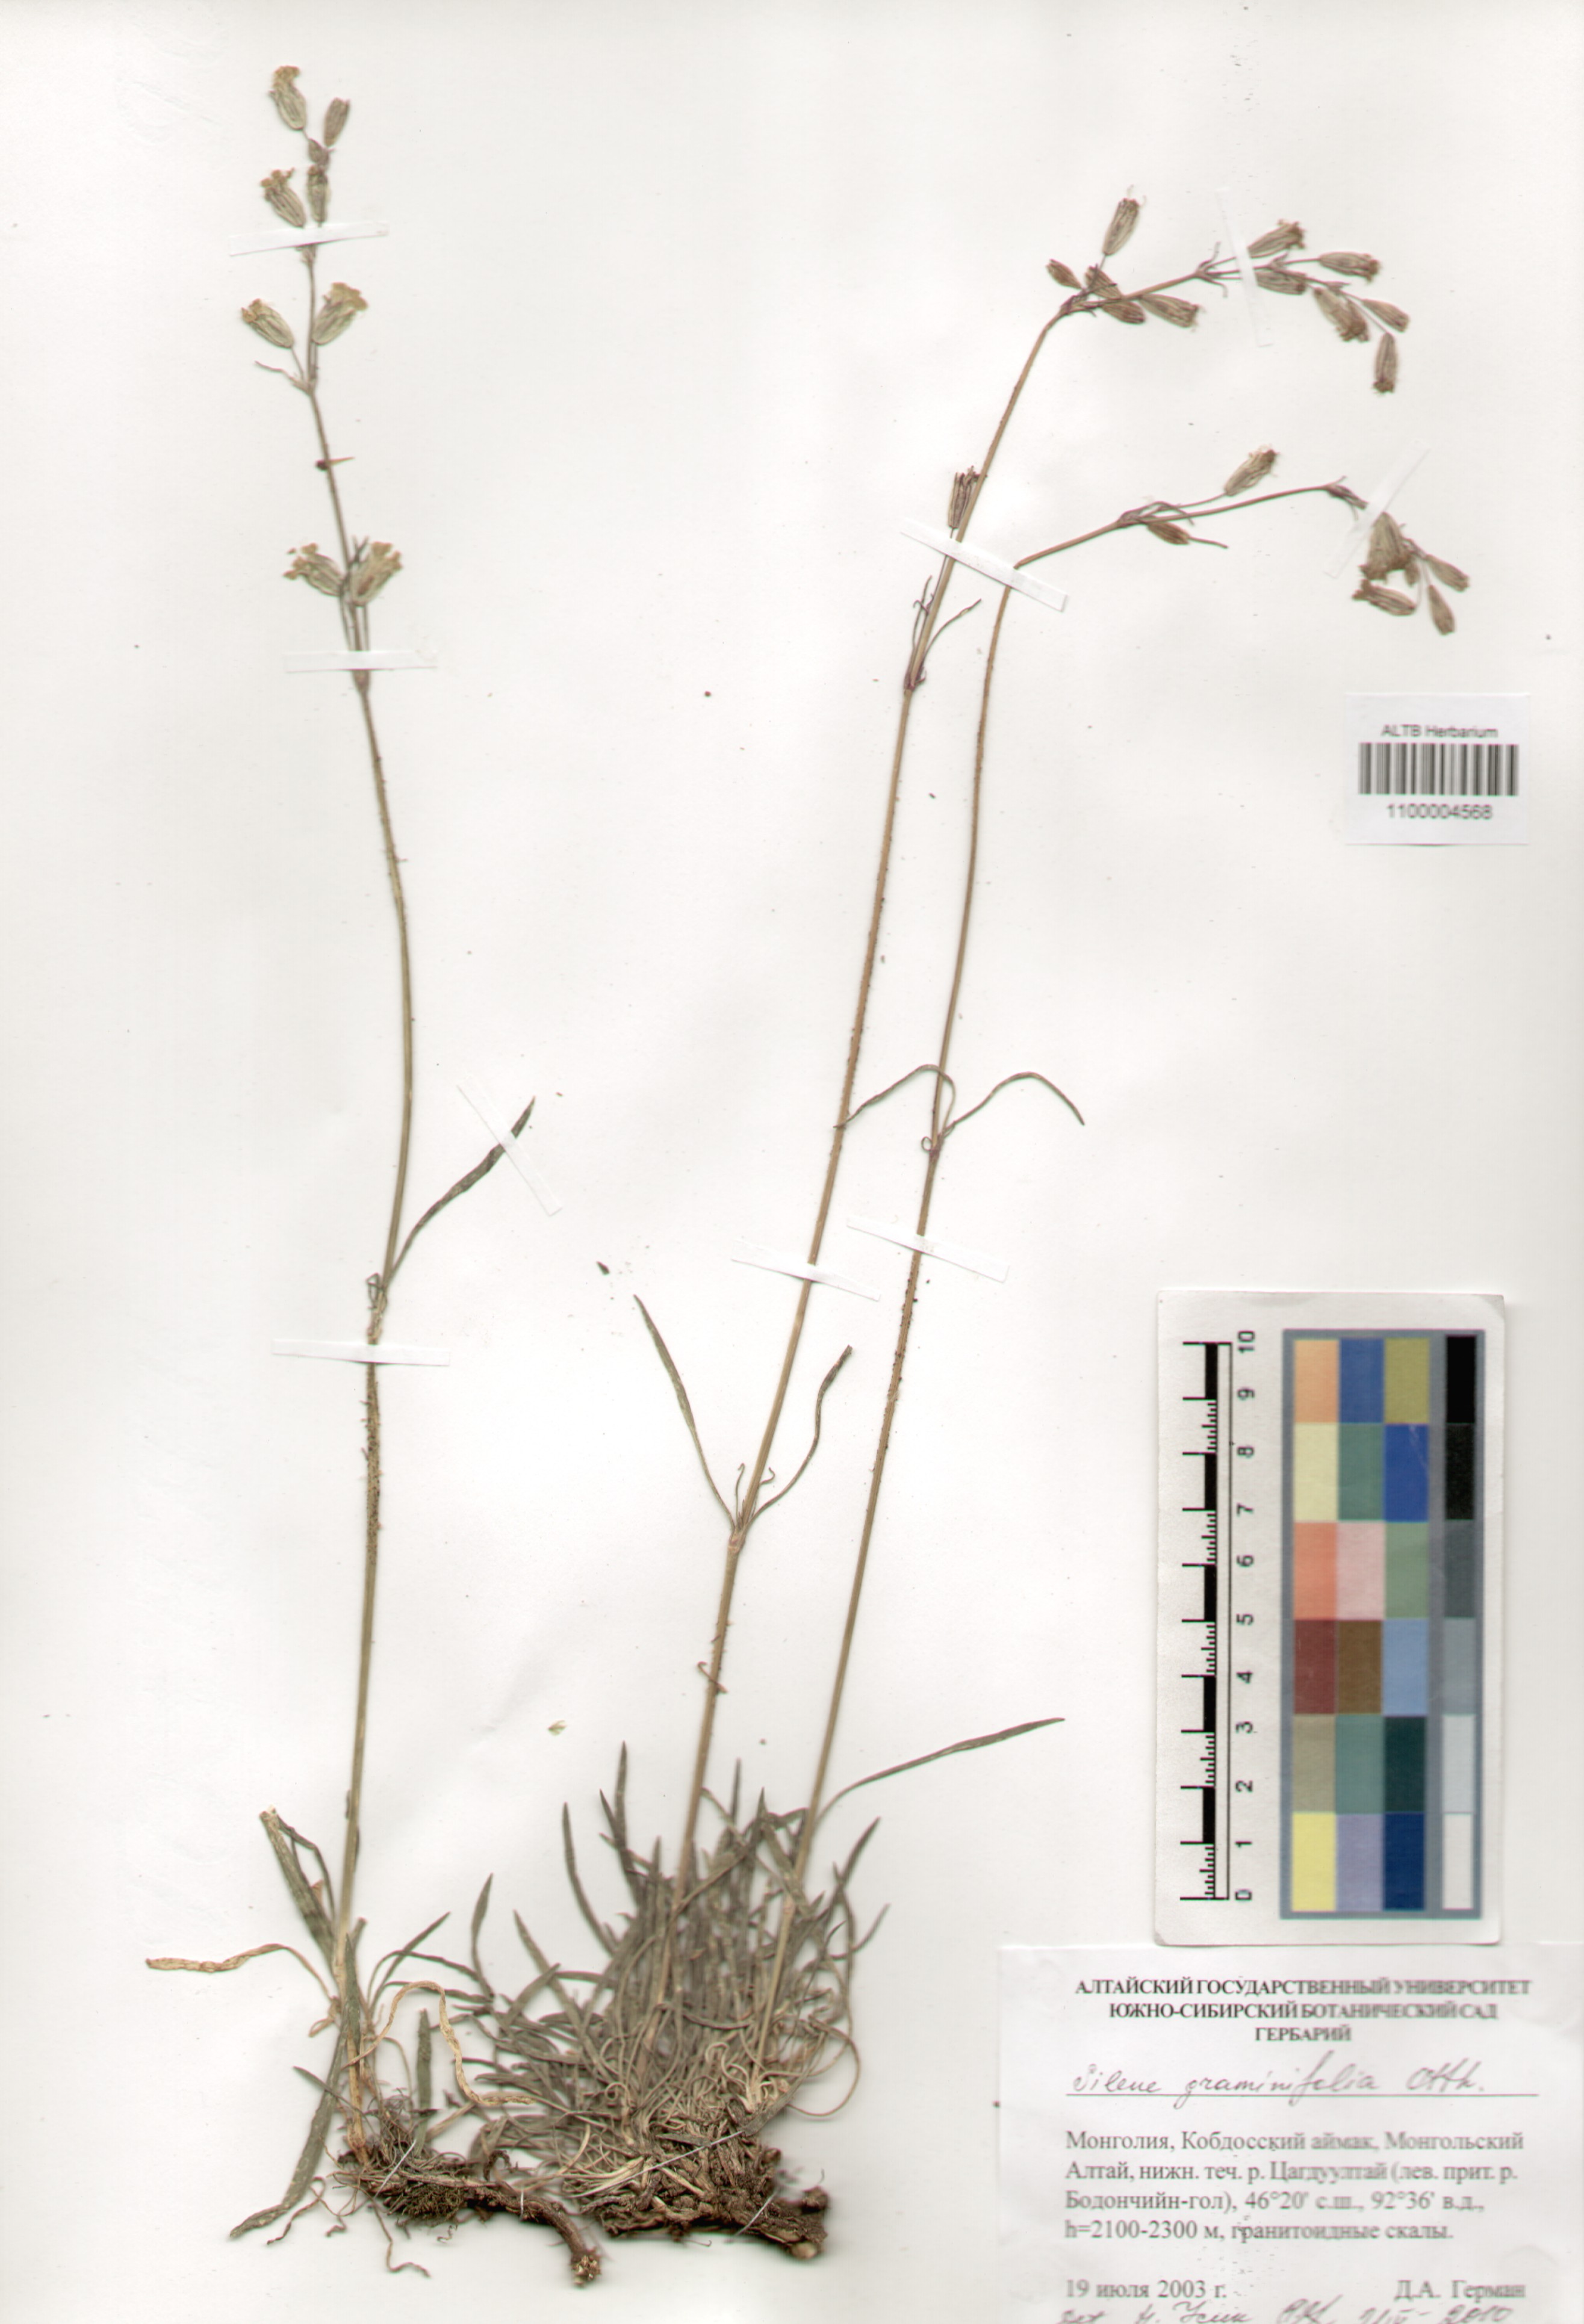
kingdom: Plantae
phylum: Tracheophyta
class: Magnoliopsida
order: Caryophyllales
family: Caryophyllaceae
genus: Silene
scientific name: Silene graminifolia
